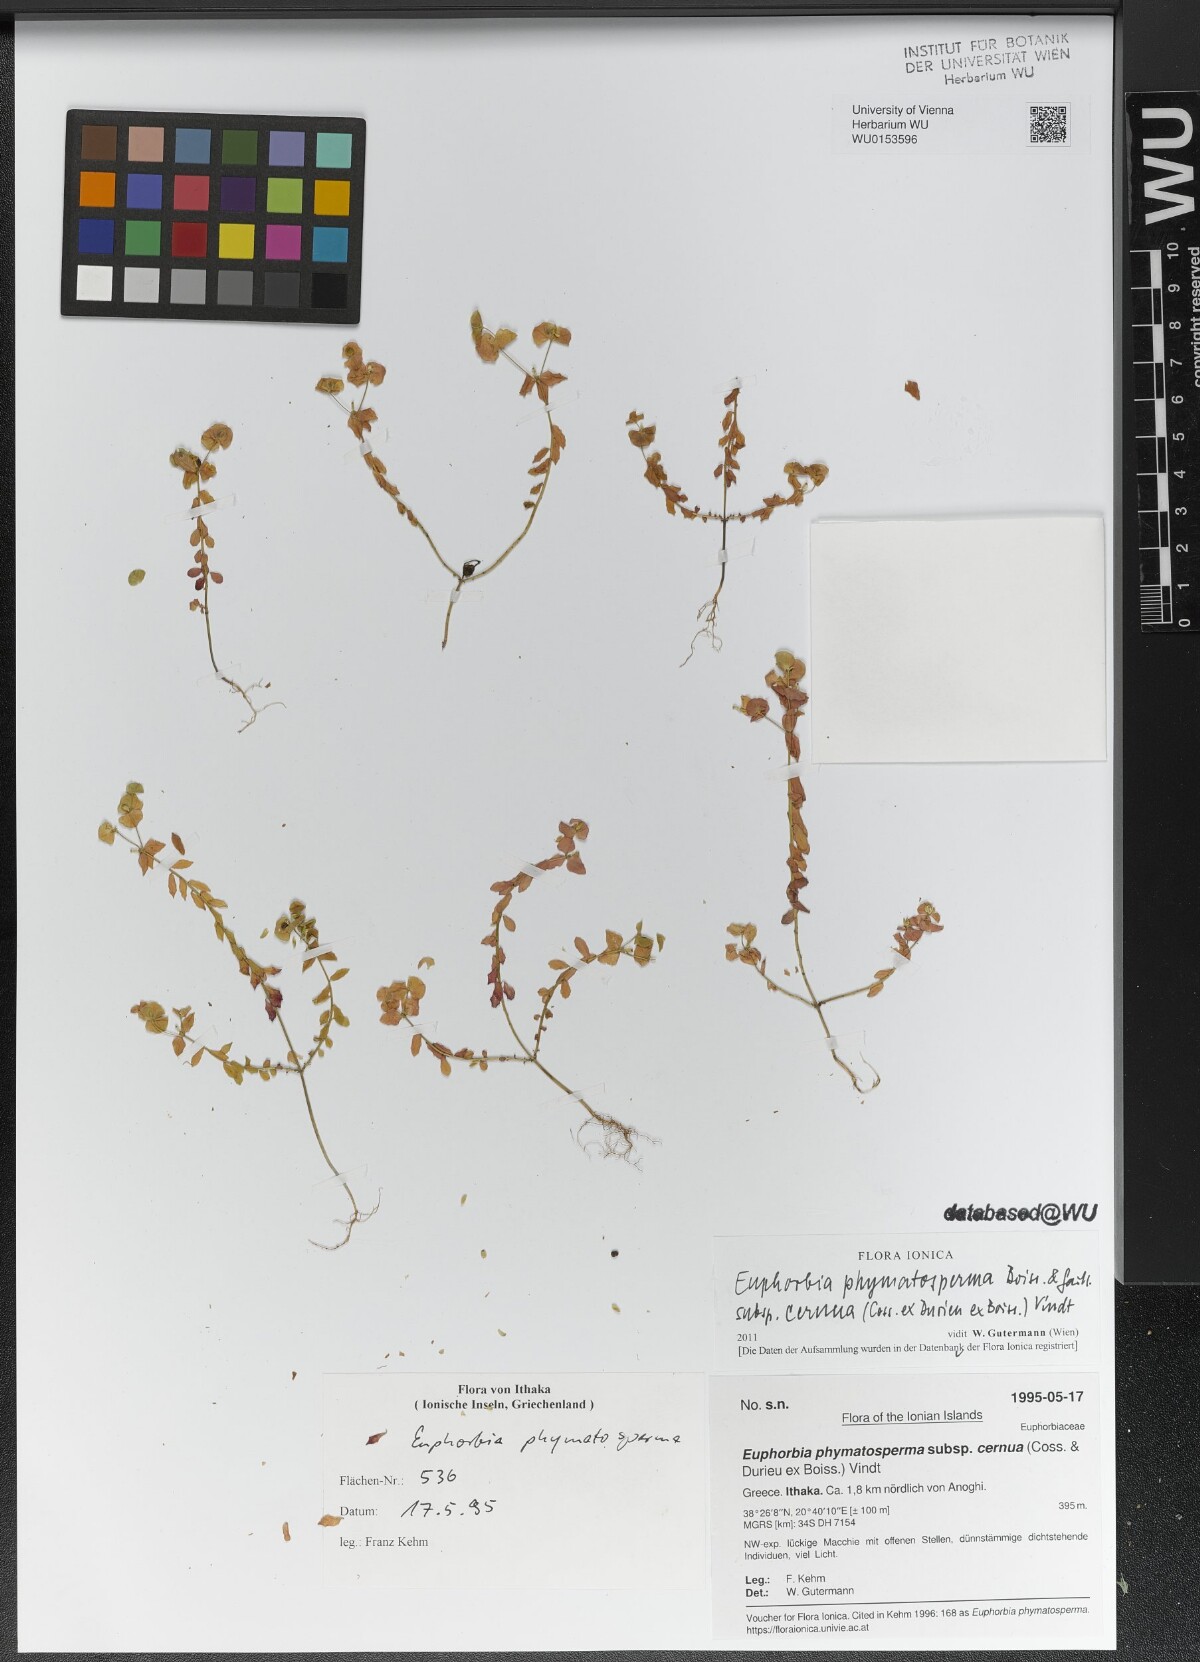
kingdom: Plantae
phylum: Tracheophyta
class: Magnoliopsida
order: Malpighiales
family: Euphorbiaceae
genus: Euphorbia
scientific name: Euphorbia phymatosperma
